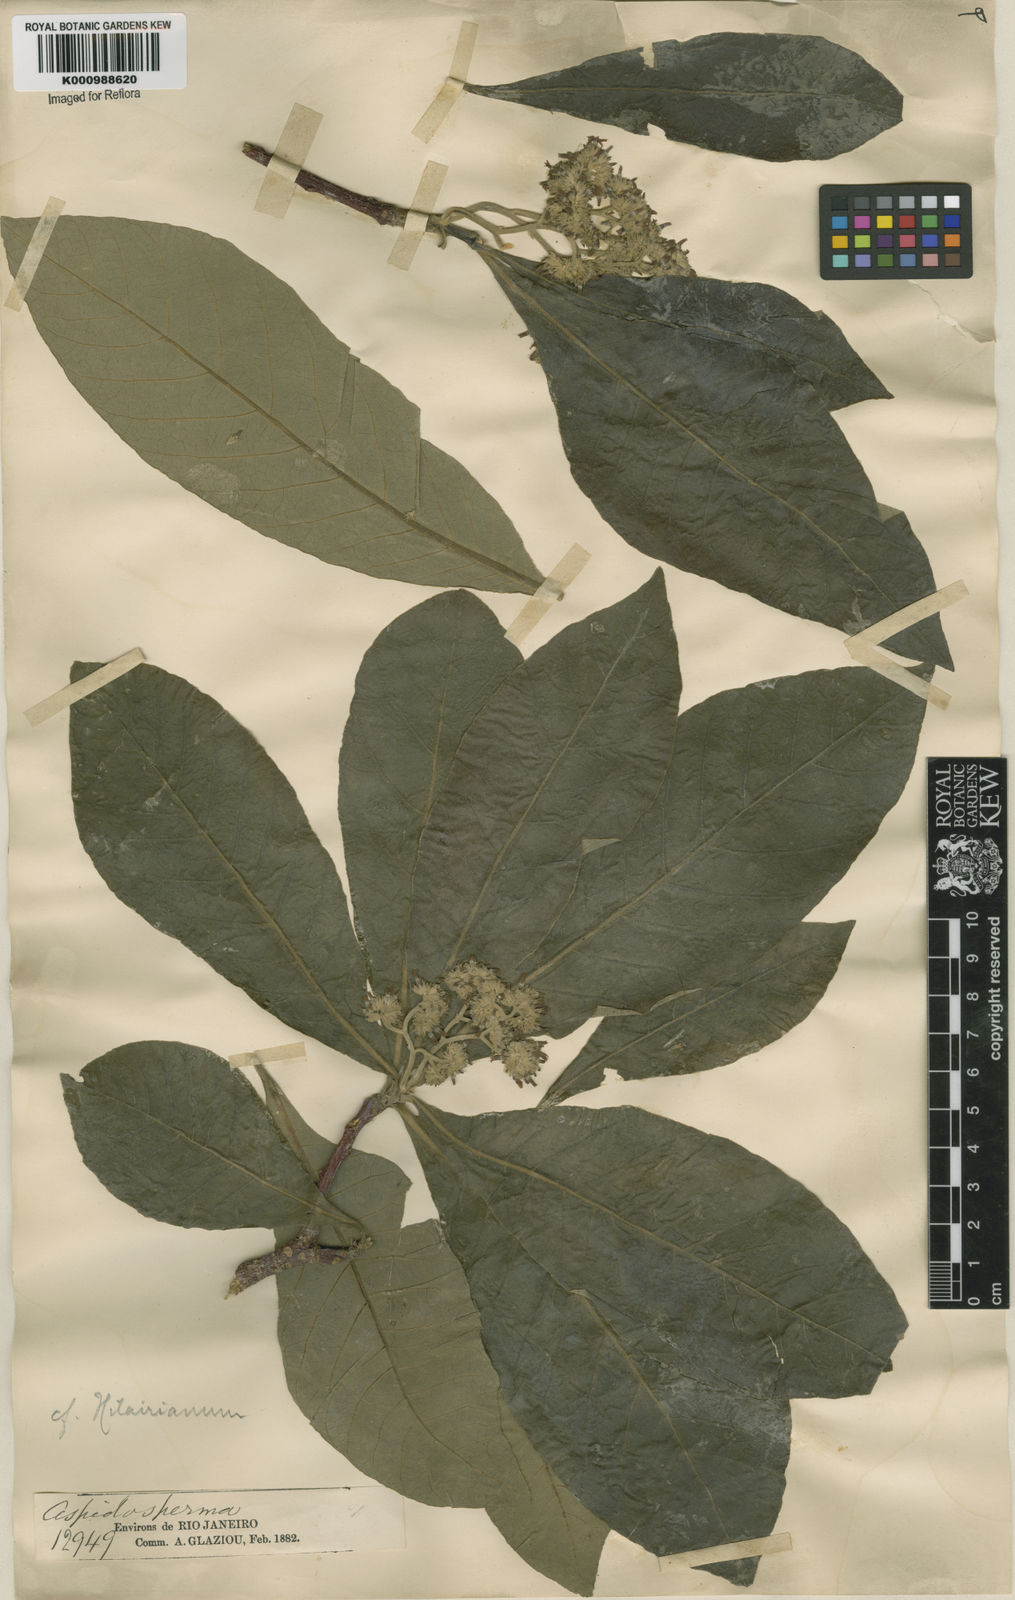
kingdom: Plantae
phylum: Tracheophyta
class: Magnoliopsida
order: Gentianales
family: Apocynaceae
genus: Aspidosperma
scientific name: Aspidosperma tomentosum
